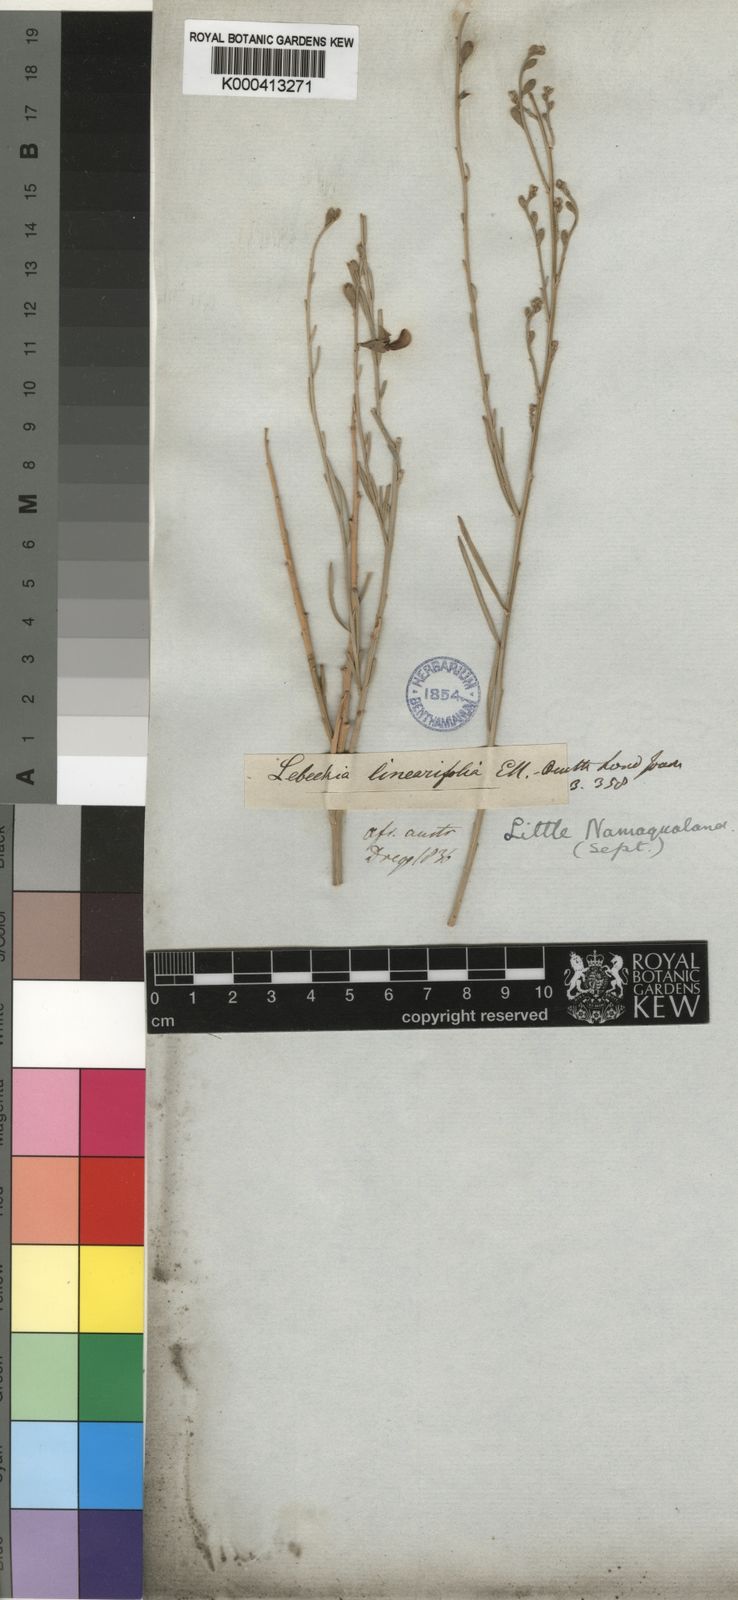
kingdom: Plantae
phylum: Tracheophyta
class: Magnoliopsida
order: Fabales
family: Fabaceae
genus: Calobota
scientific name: Calobota linearifolia
